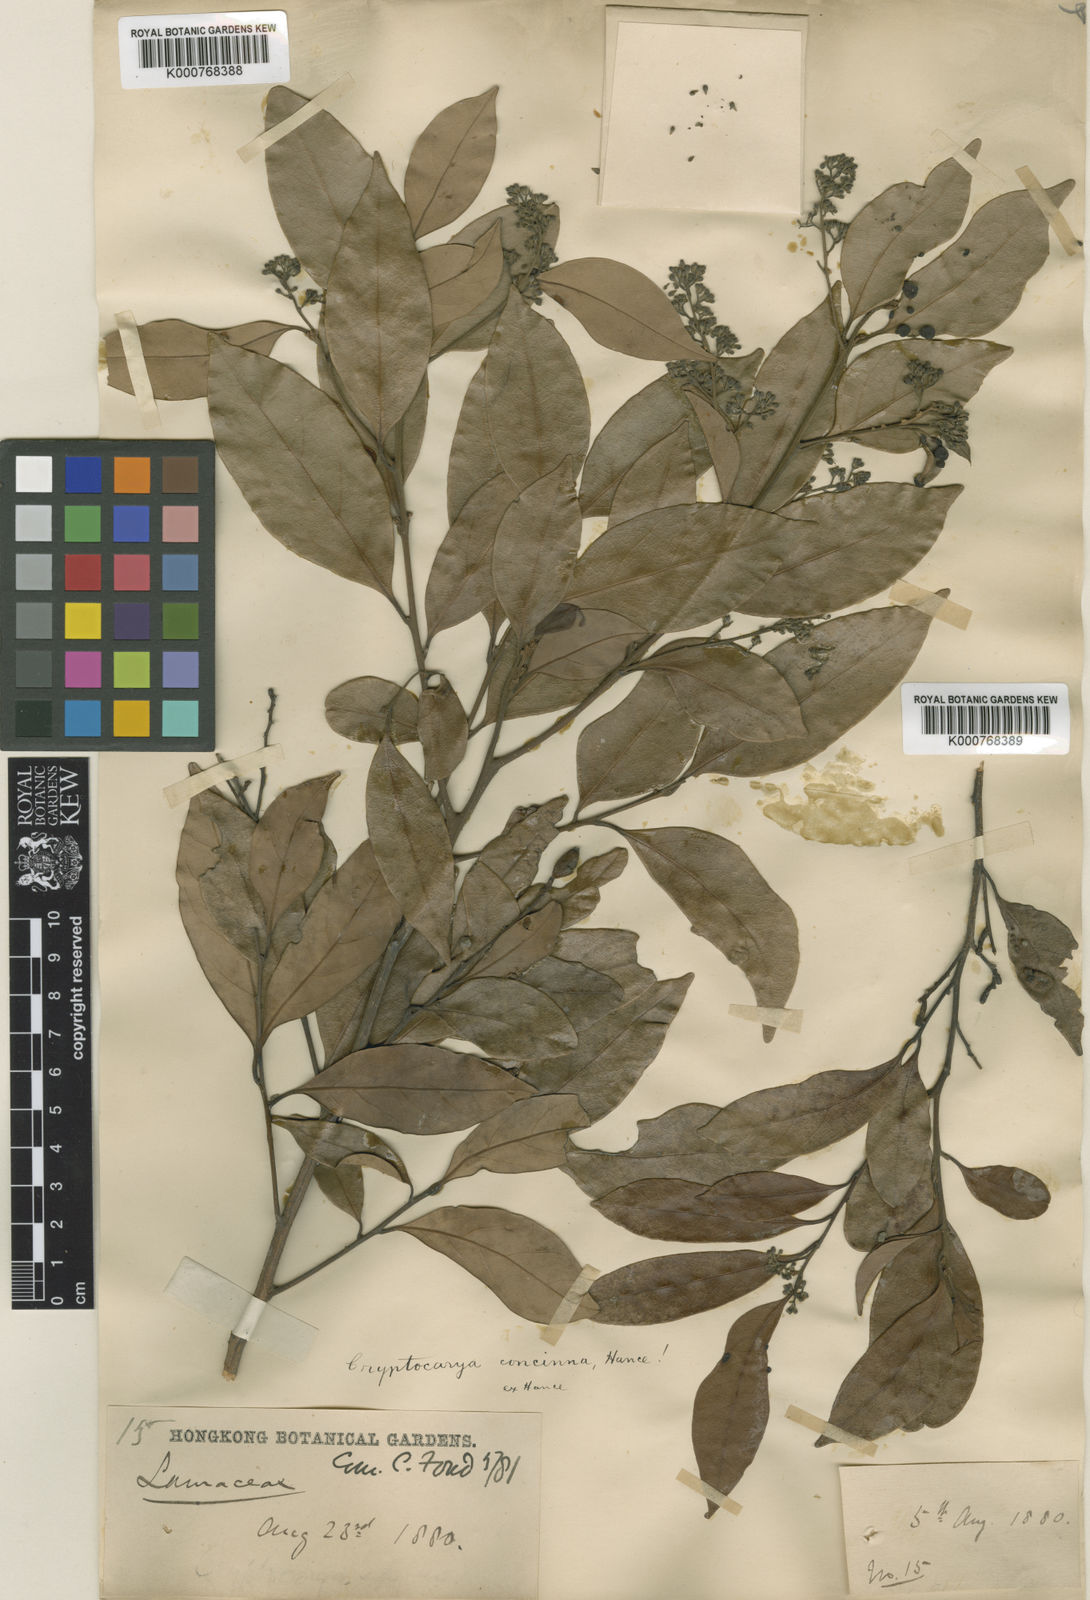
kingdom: Plantae
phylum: Tracheophyta
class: Magnoliopsida
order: Laurales
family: Lauraceae
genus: Cryptocarya
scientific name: Cryptocarya concinna
